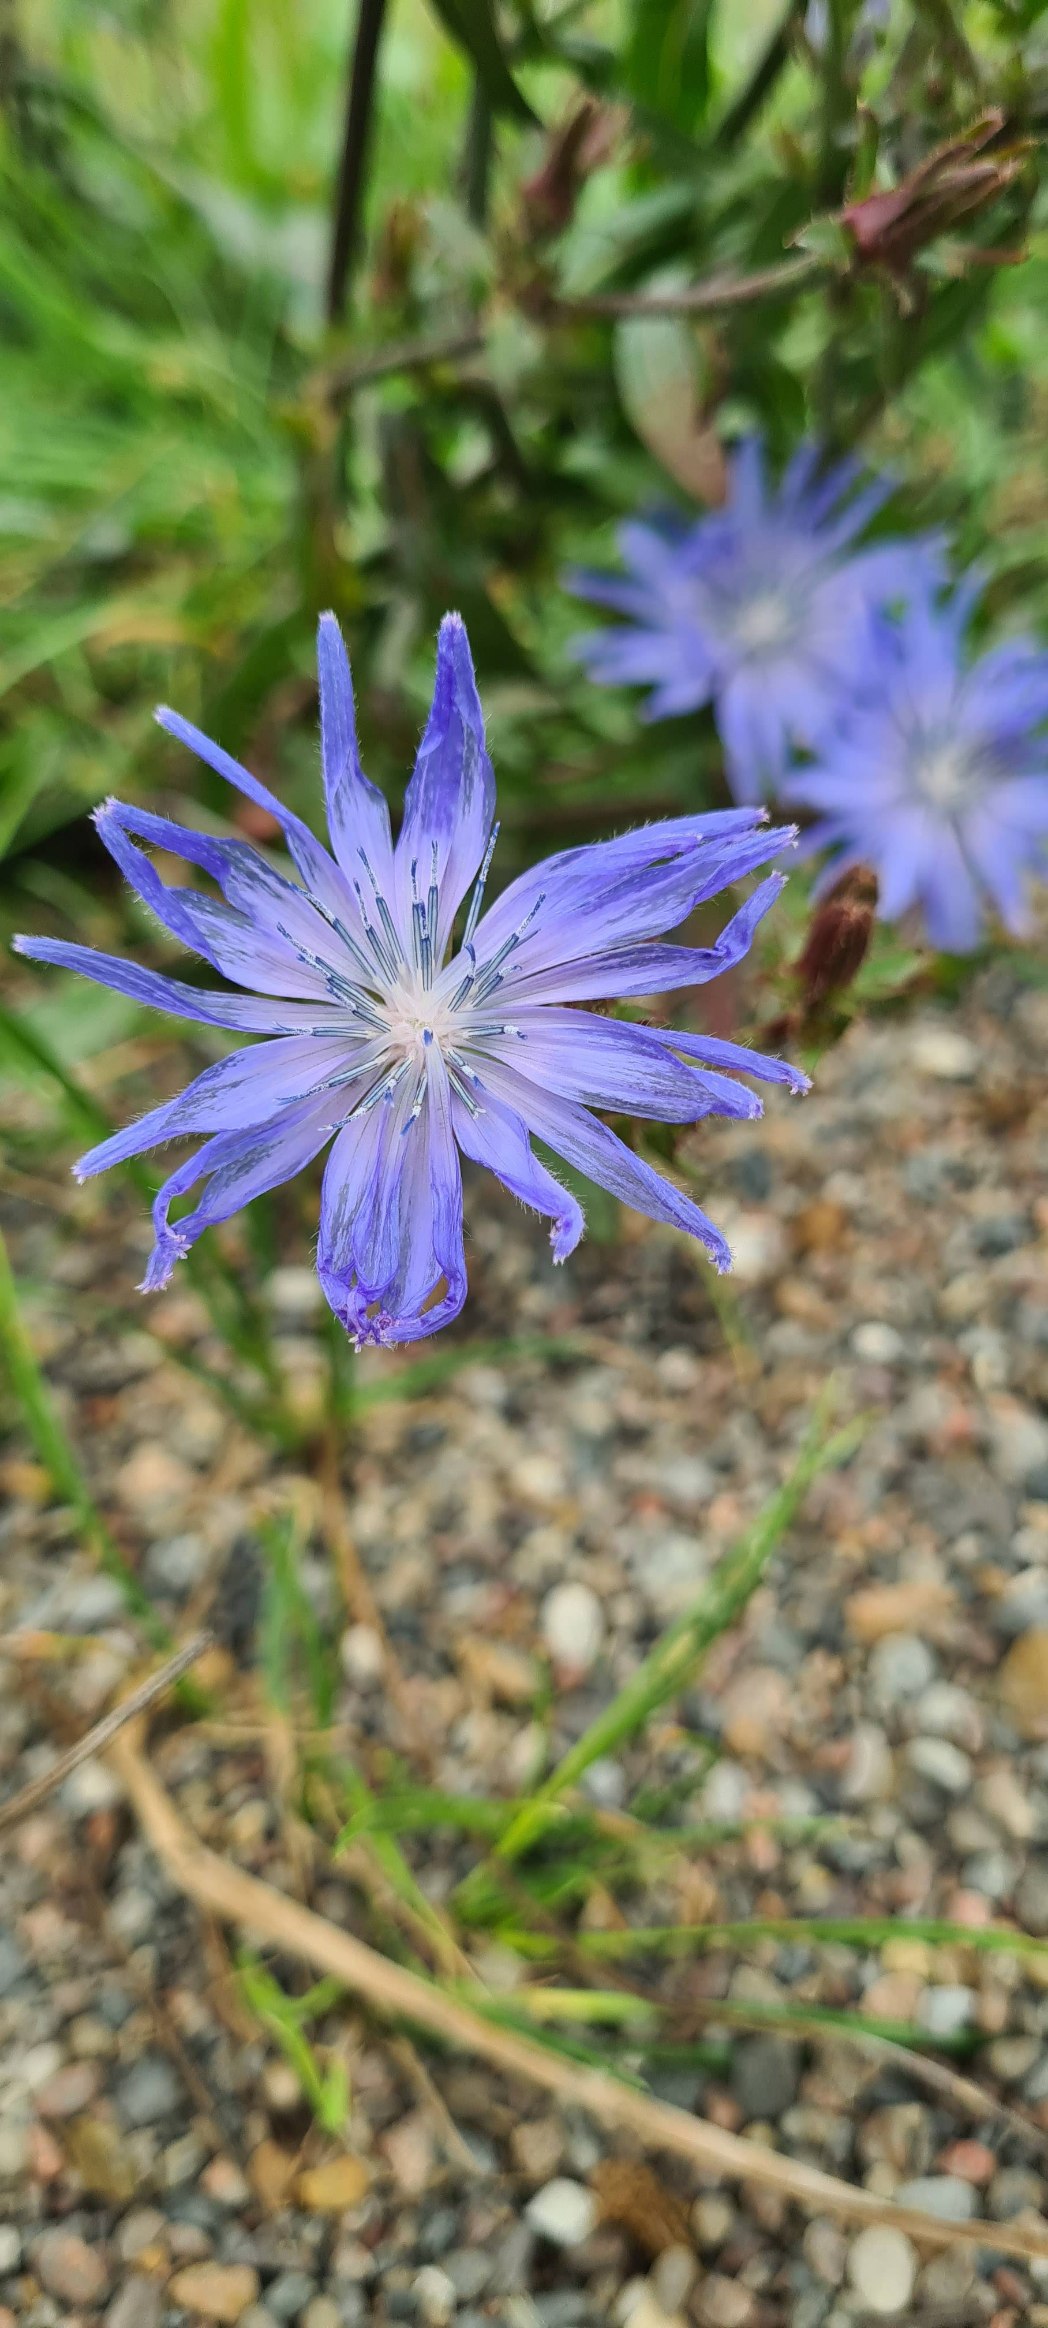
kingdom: Plantae
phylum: Tracheophyta
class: Magnoliopsida
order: Asterales
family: Asteraceae
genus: Cichorium
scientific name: Cichorium intybus
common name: Cikorie
